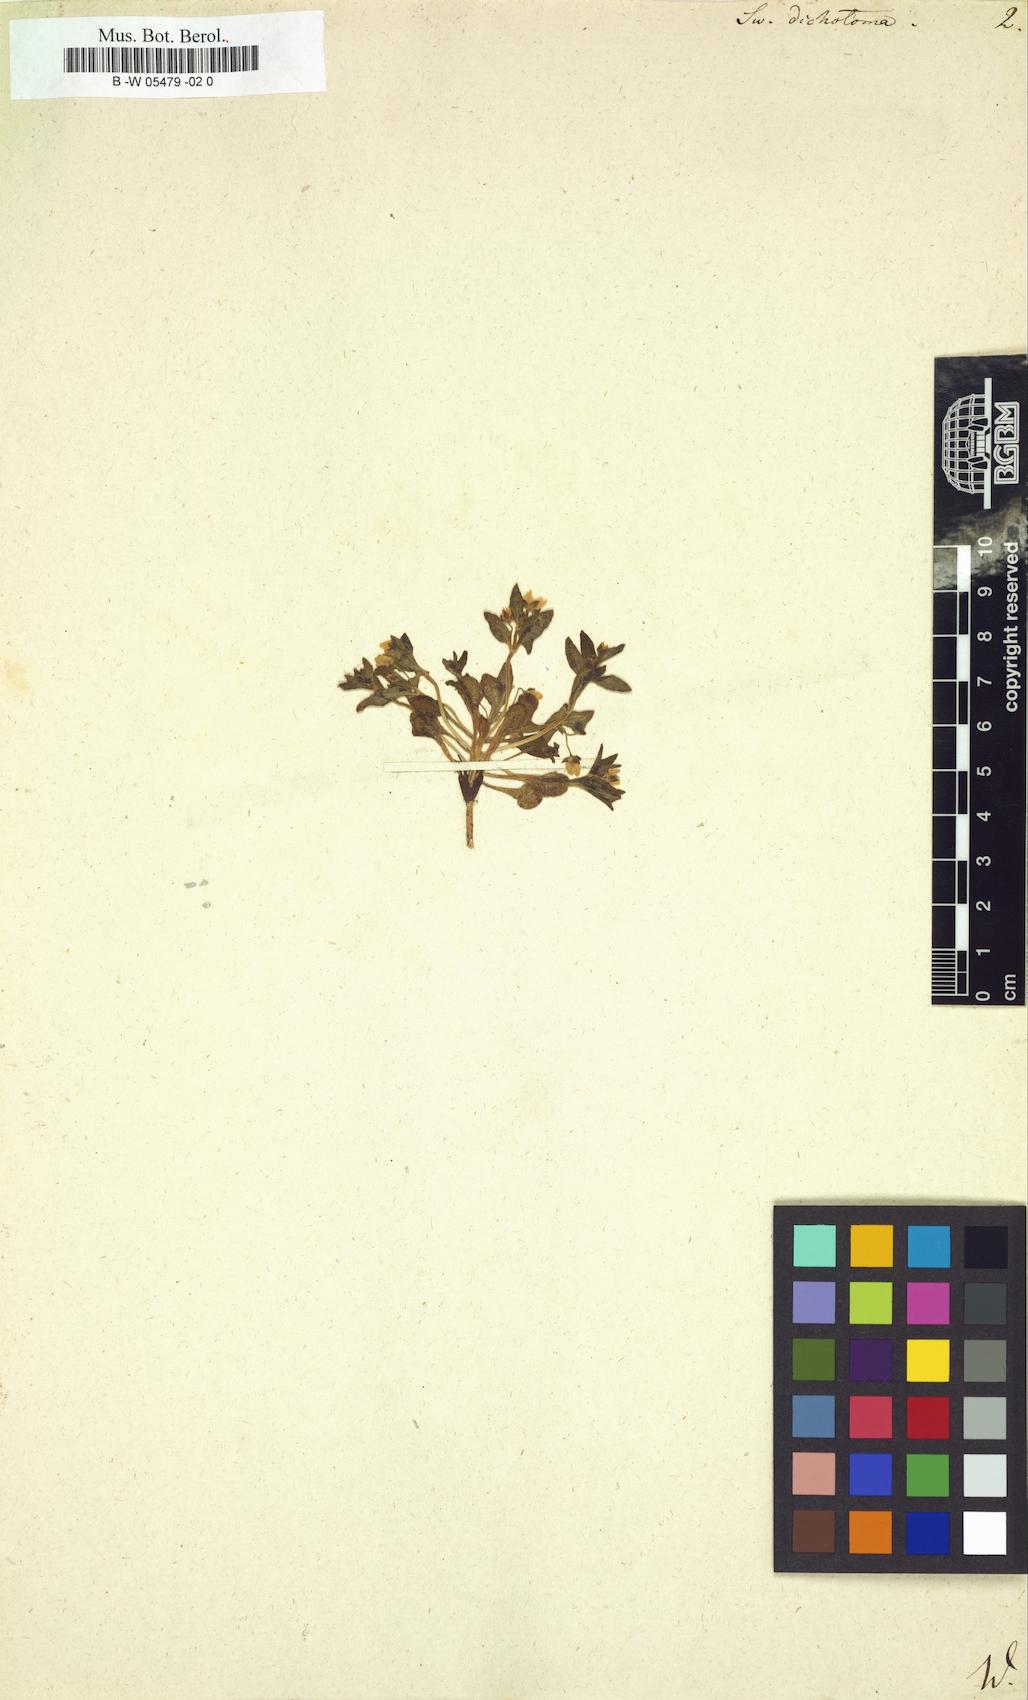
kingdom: Plantae
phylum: Tracheophyta
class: Magnoliopsida
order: Gentianales
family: Gentianaceae
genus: Swertia
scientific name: Swertia dichotoma
